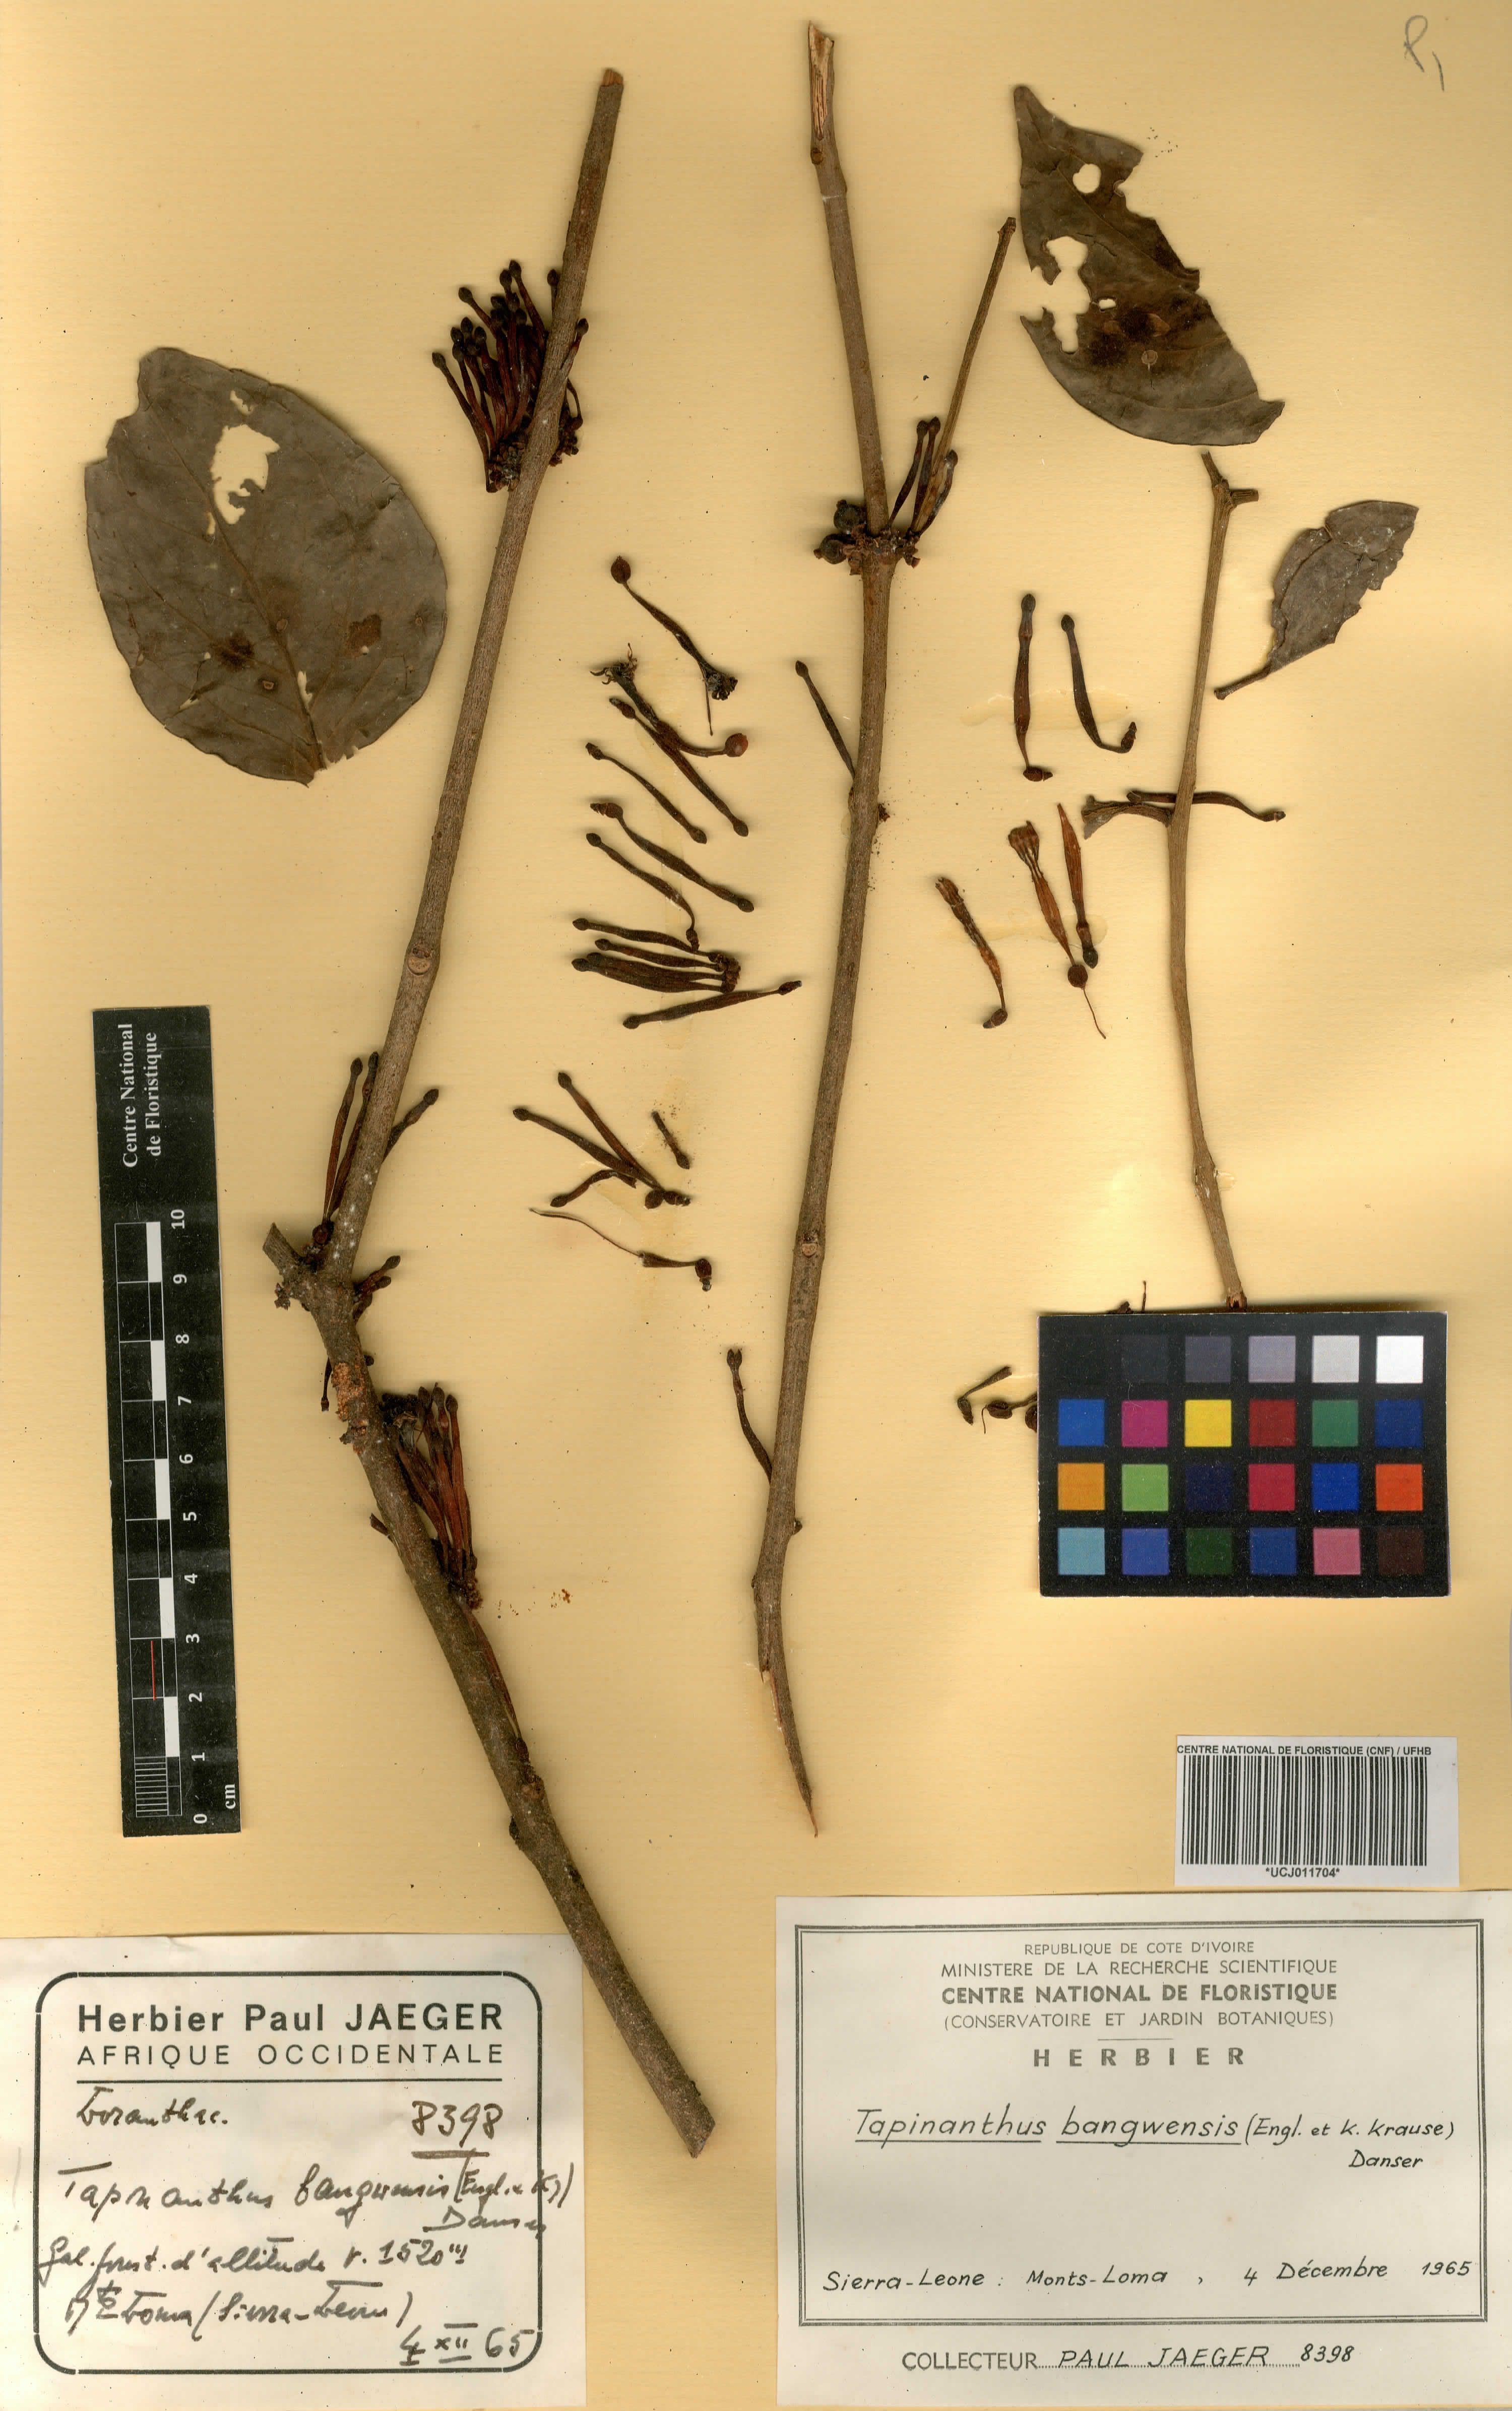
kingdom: Plantae
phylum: Tracheophyta
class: Magnoliopsida
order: Santalales
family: Loranthaceae
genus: Tapinanthus
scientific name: Tapinanthus bangwensis
